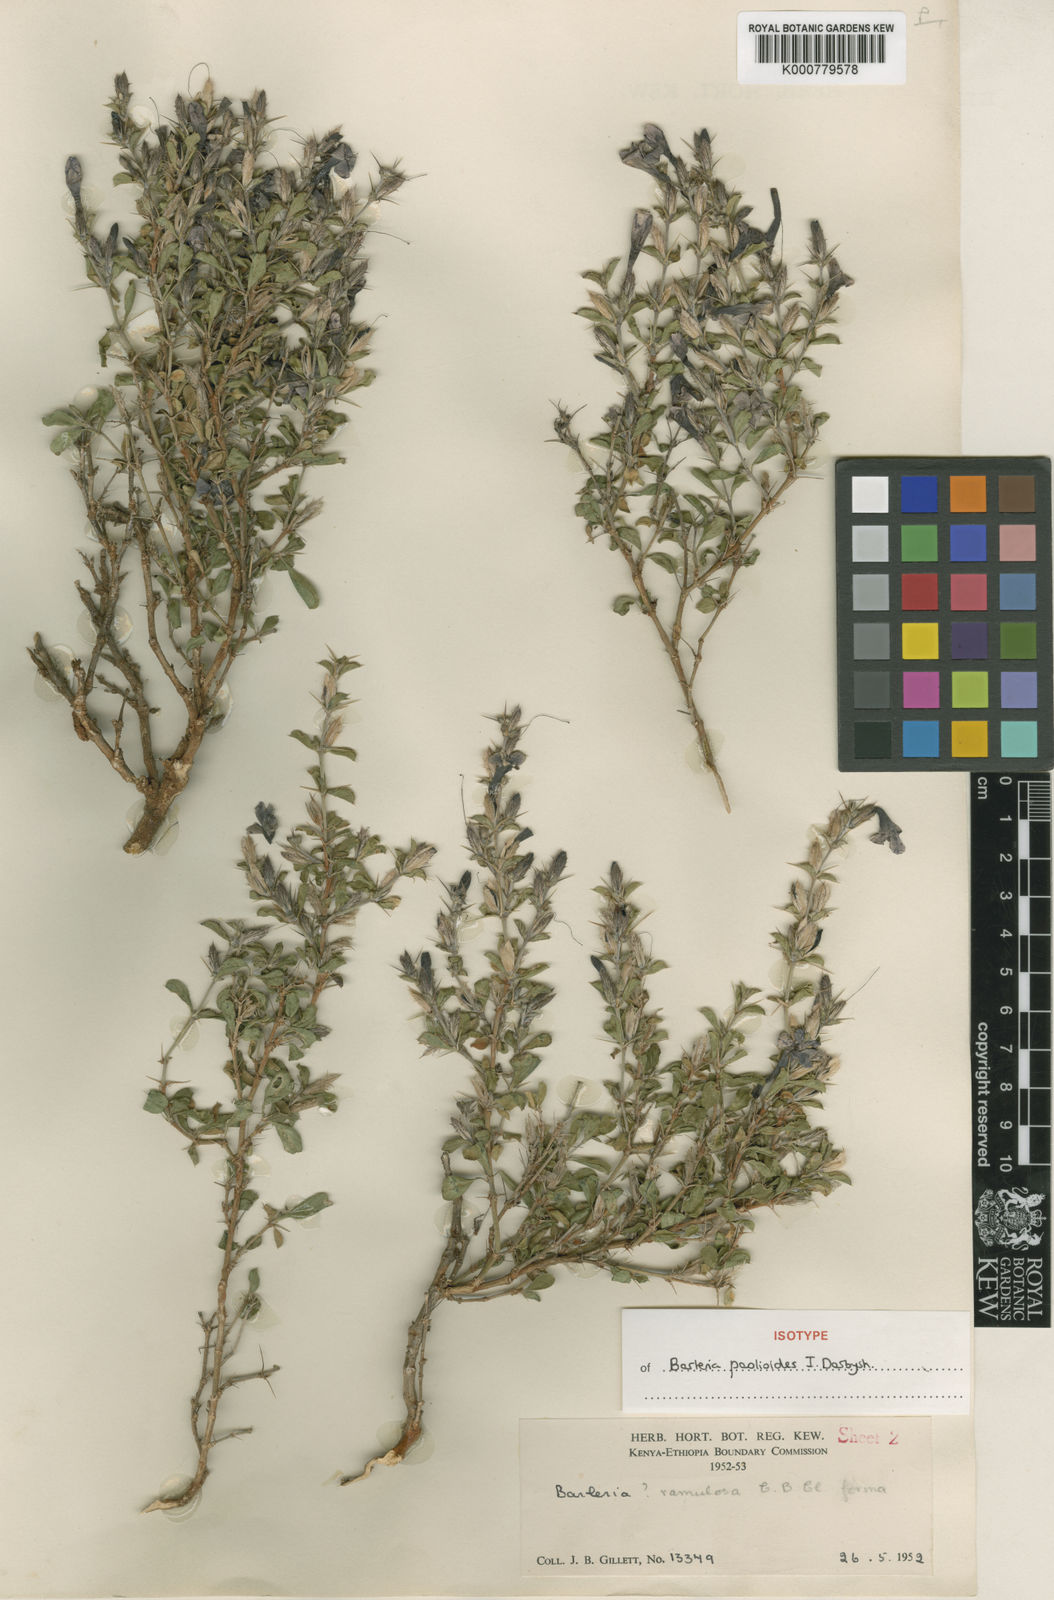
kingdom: Plantae
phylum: Tracheophyta
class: Magnoliopsida
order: Lamiales
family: Acanthaceae
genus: Barleria
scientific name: Barleria paolioides
